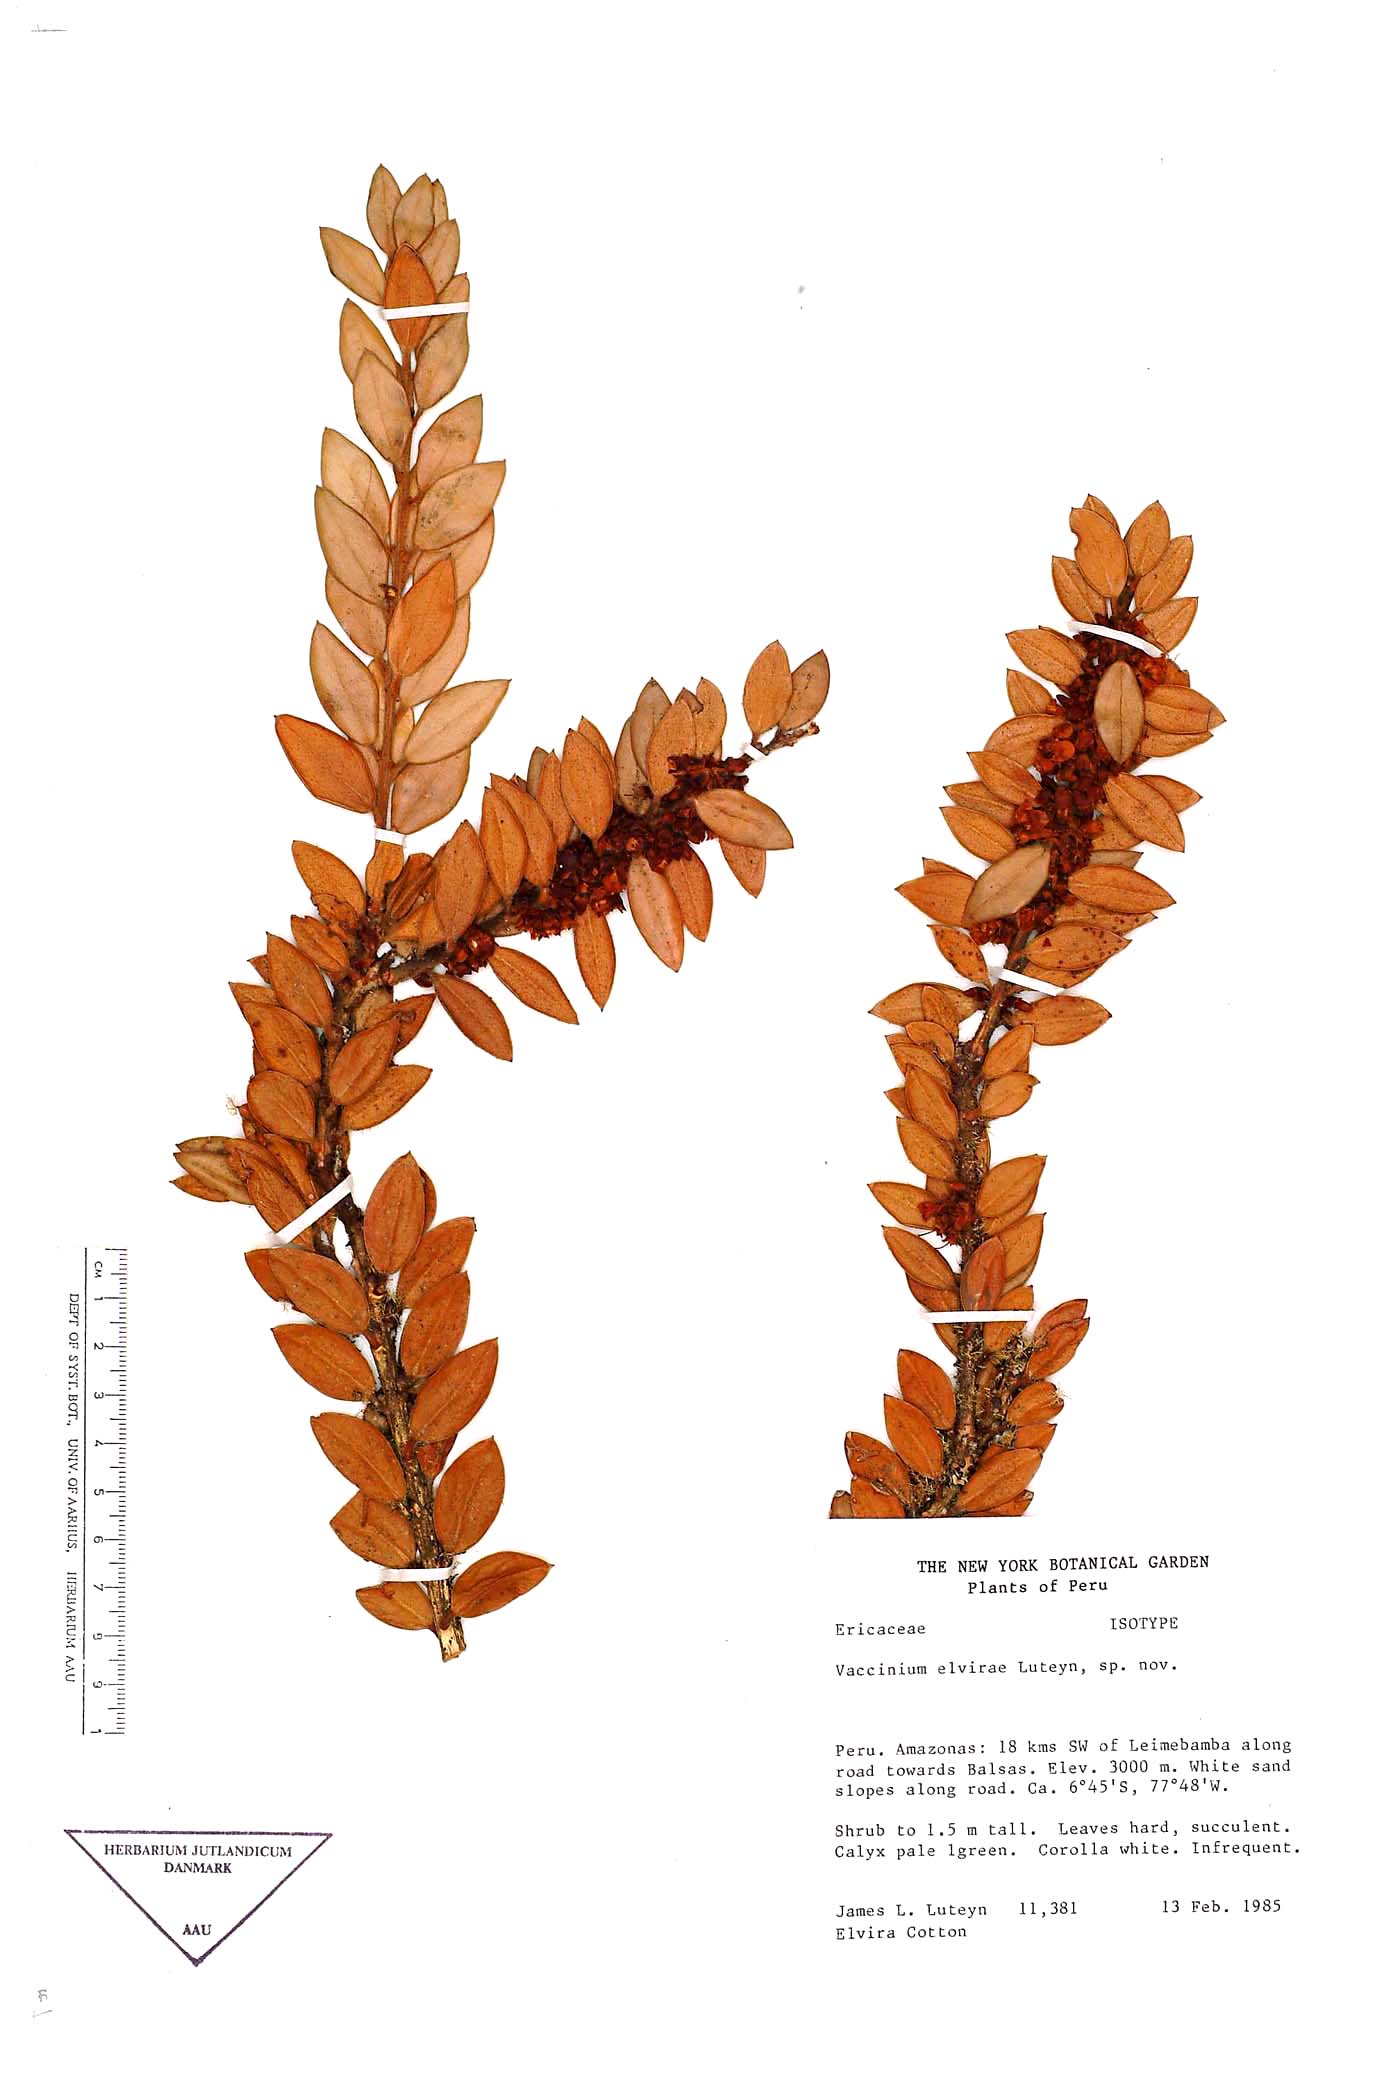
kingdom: Plantae
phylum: Tracheophyta
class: Magnoliopsida
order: Ericales
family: Ericaceae
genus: Vaccinium
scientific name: Vaccinium elvirae
